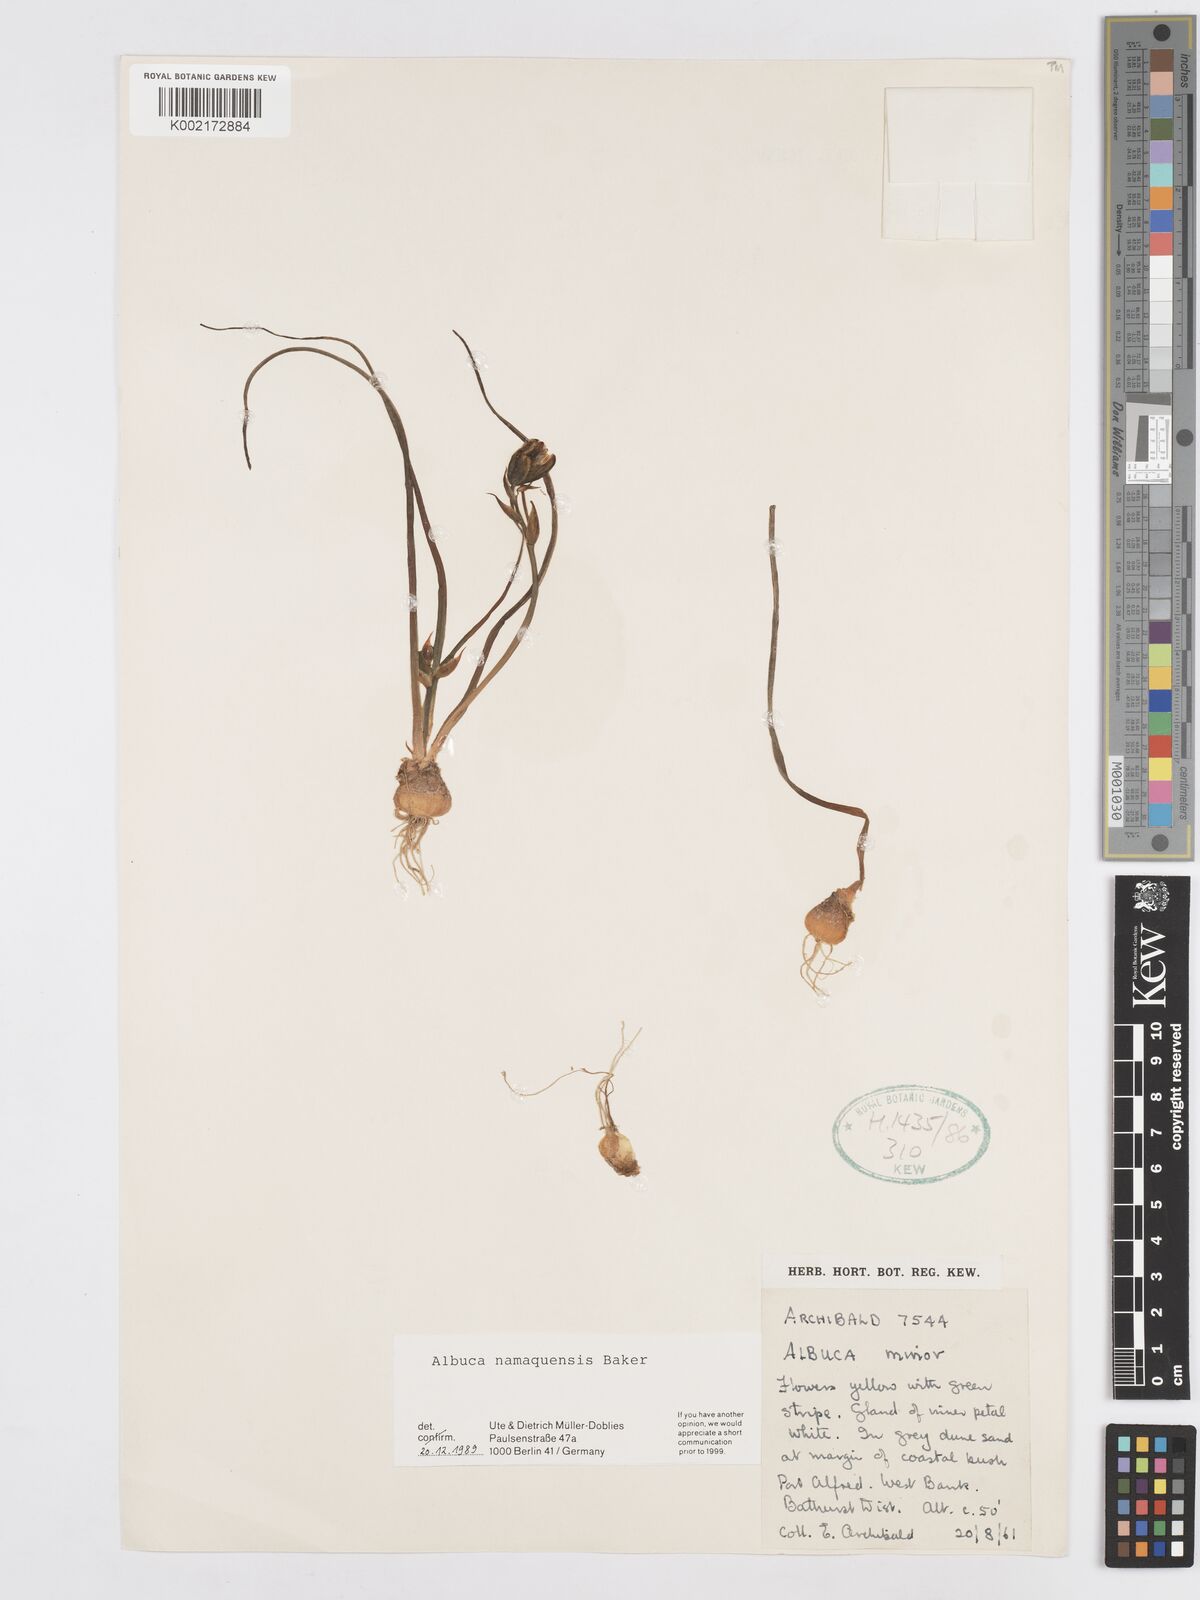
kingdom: Plantae
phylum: Tracheophyta
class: Liliopsida
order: Asparagales
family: Asparagaceae
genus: Albuca
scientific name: Albuca namaquensis
